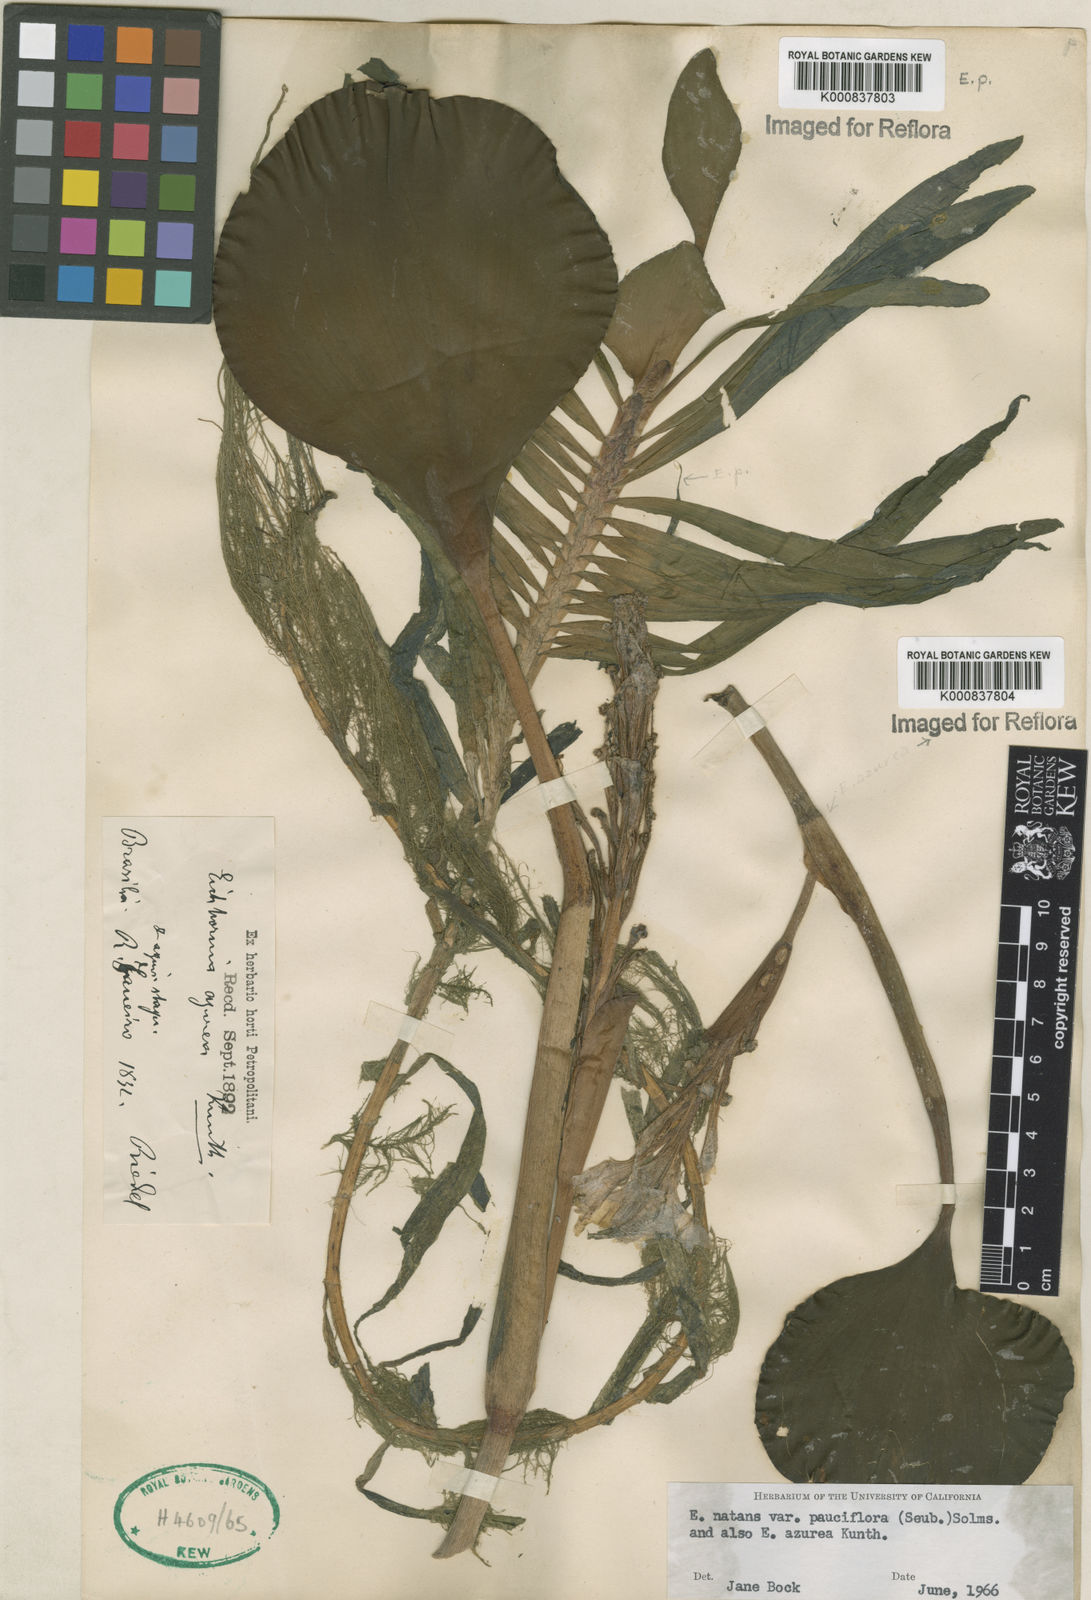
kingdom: Plantae
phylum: Tracheophyta
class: Liliopsida
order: Commelinales
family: Pontederiaceae
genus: Pontederia
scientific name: Pontederia diversifolia
